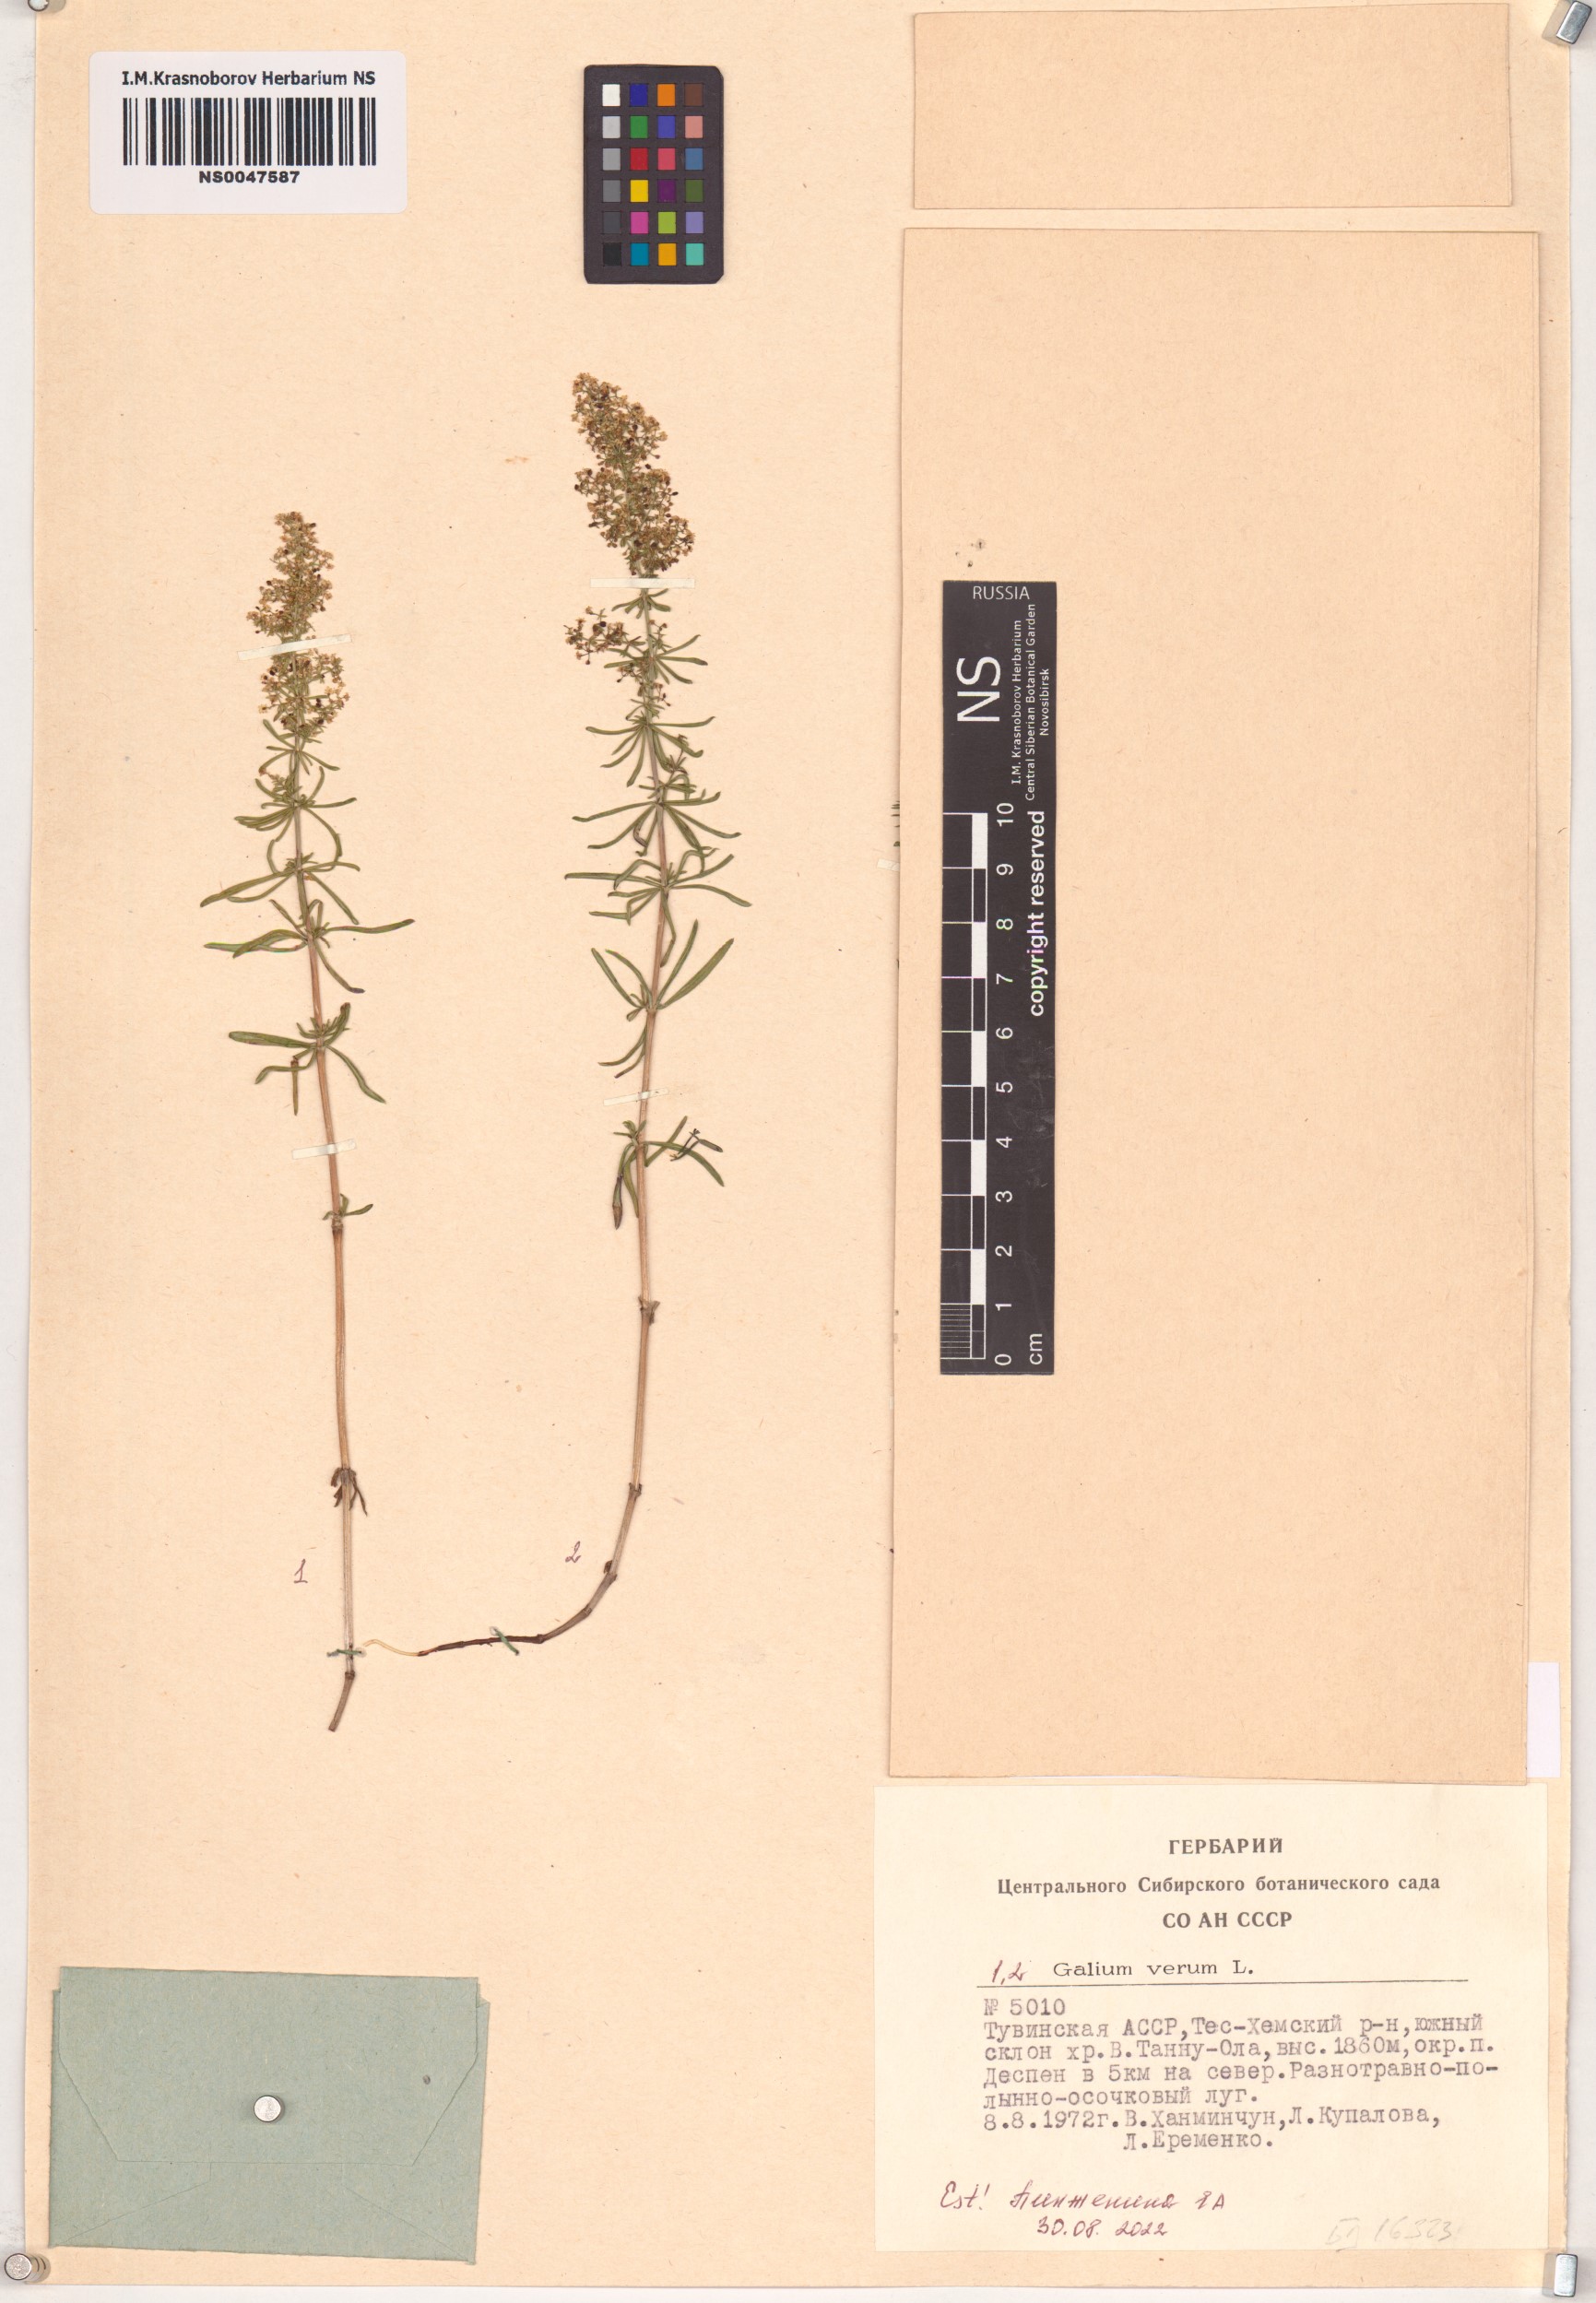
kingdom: Plantae
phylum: Tracheophyta
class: Magnoliopsida
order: Gentianales
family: Rubiaceae
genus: Galium
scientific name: Galium verum
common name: Lady's bedstraw
